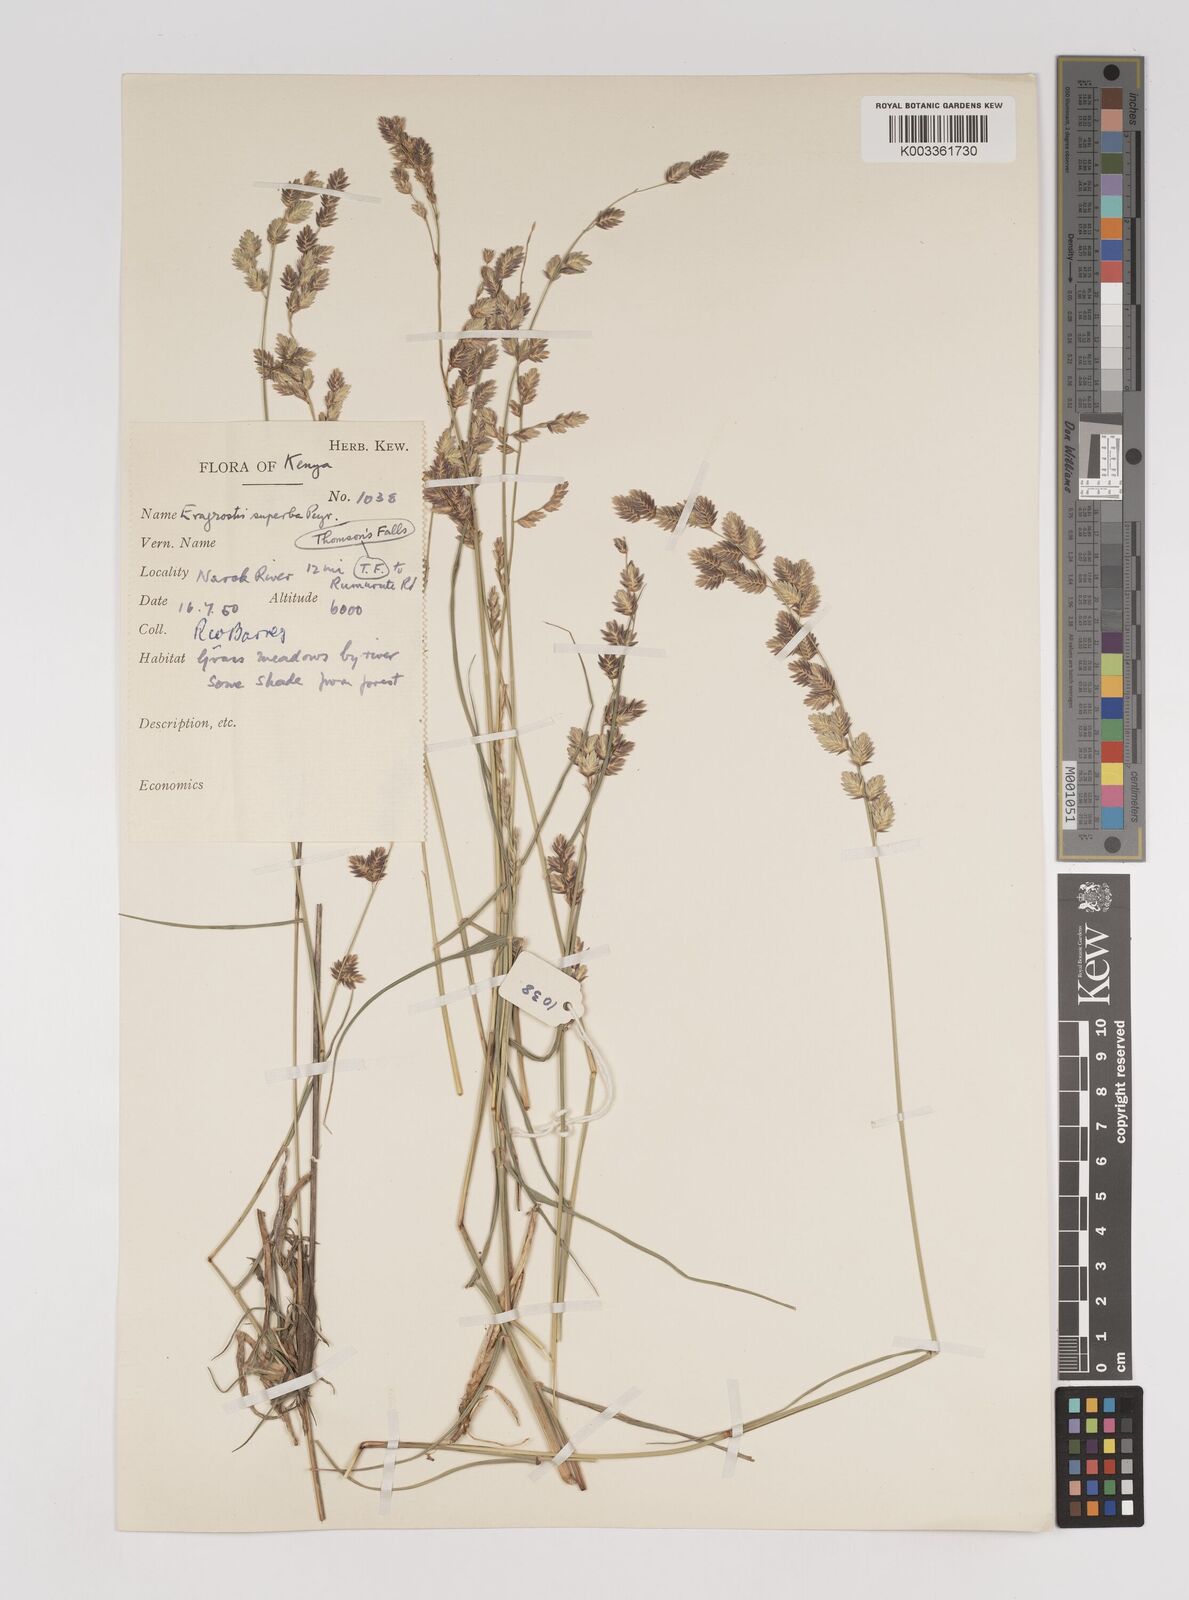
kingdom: Plantae
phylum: Tracheophyta
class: Liliopsida
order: Poales
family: Poaceae
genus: Eragrostis
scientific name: Eragrostis superba
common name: Wilman lovegrass
